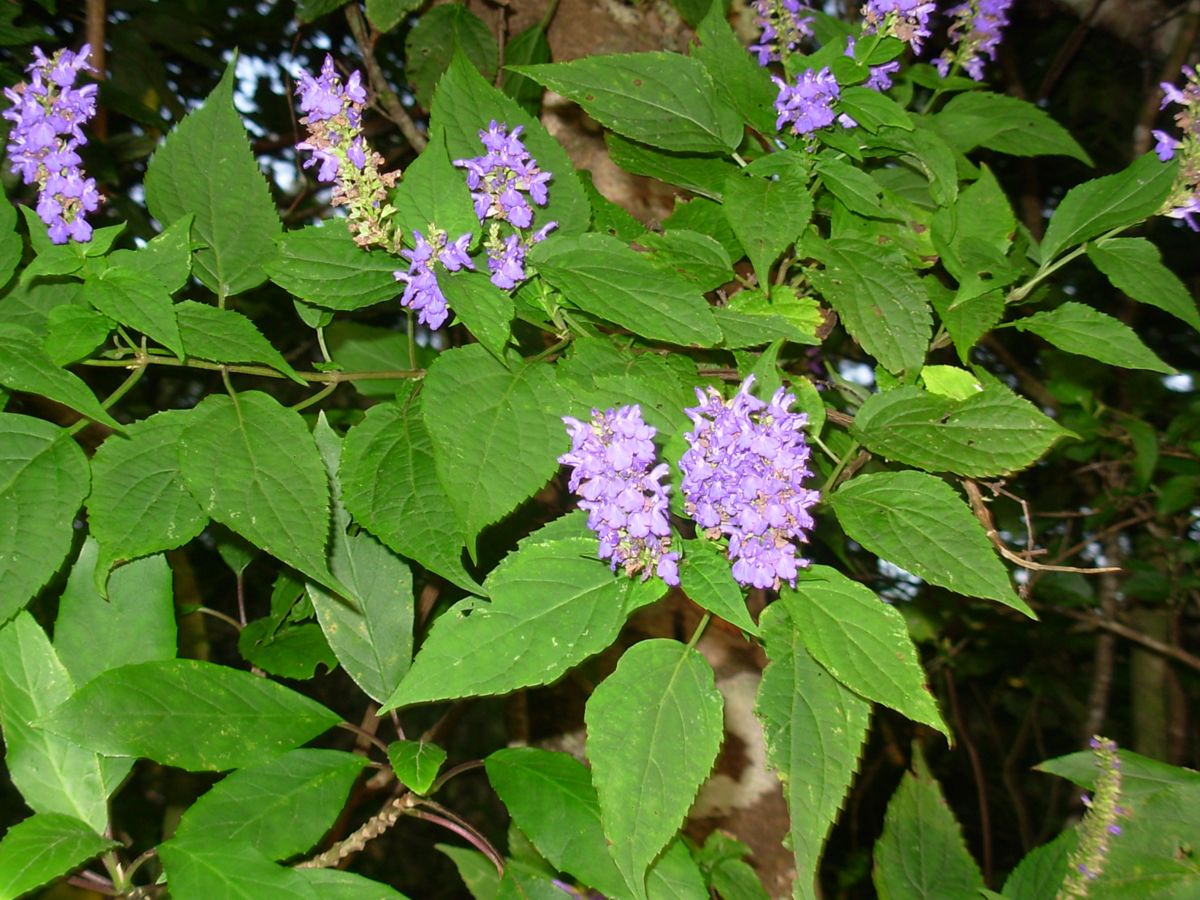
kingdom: Plantae
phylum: Tracheophyta
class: Magnoliopsida
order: Lamiales
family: Lamiaceae
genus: Salvia
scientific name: Salvia polystachia
